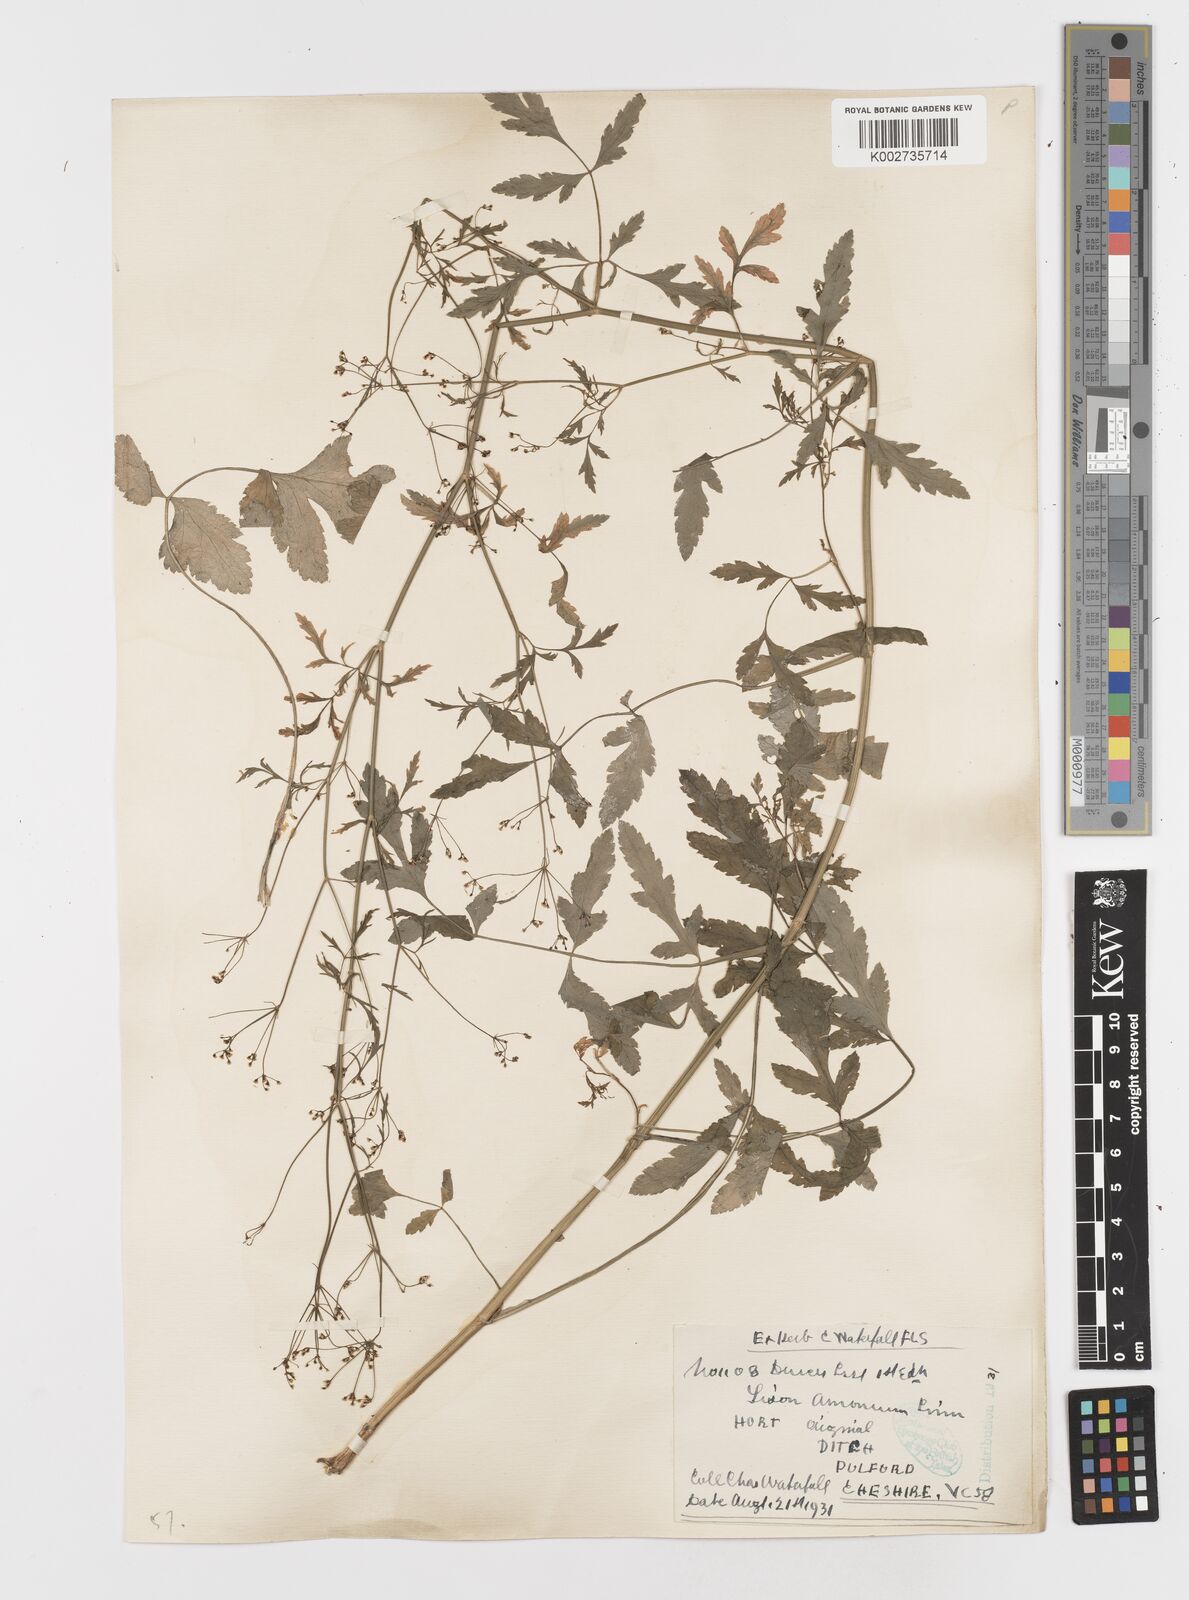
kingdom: Plantae
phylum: Tracheophyta
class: Magnoliopsida
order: Apiales
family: Apiaceae
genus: Sison
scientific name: Sison amomum
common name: Stone-parsley
